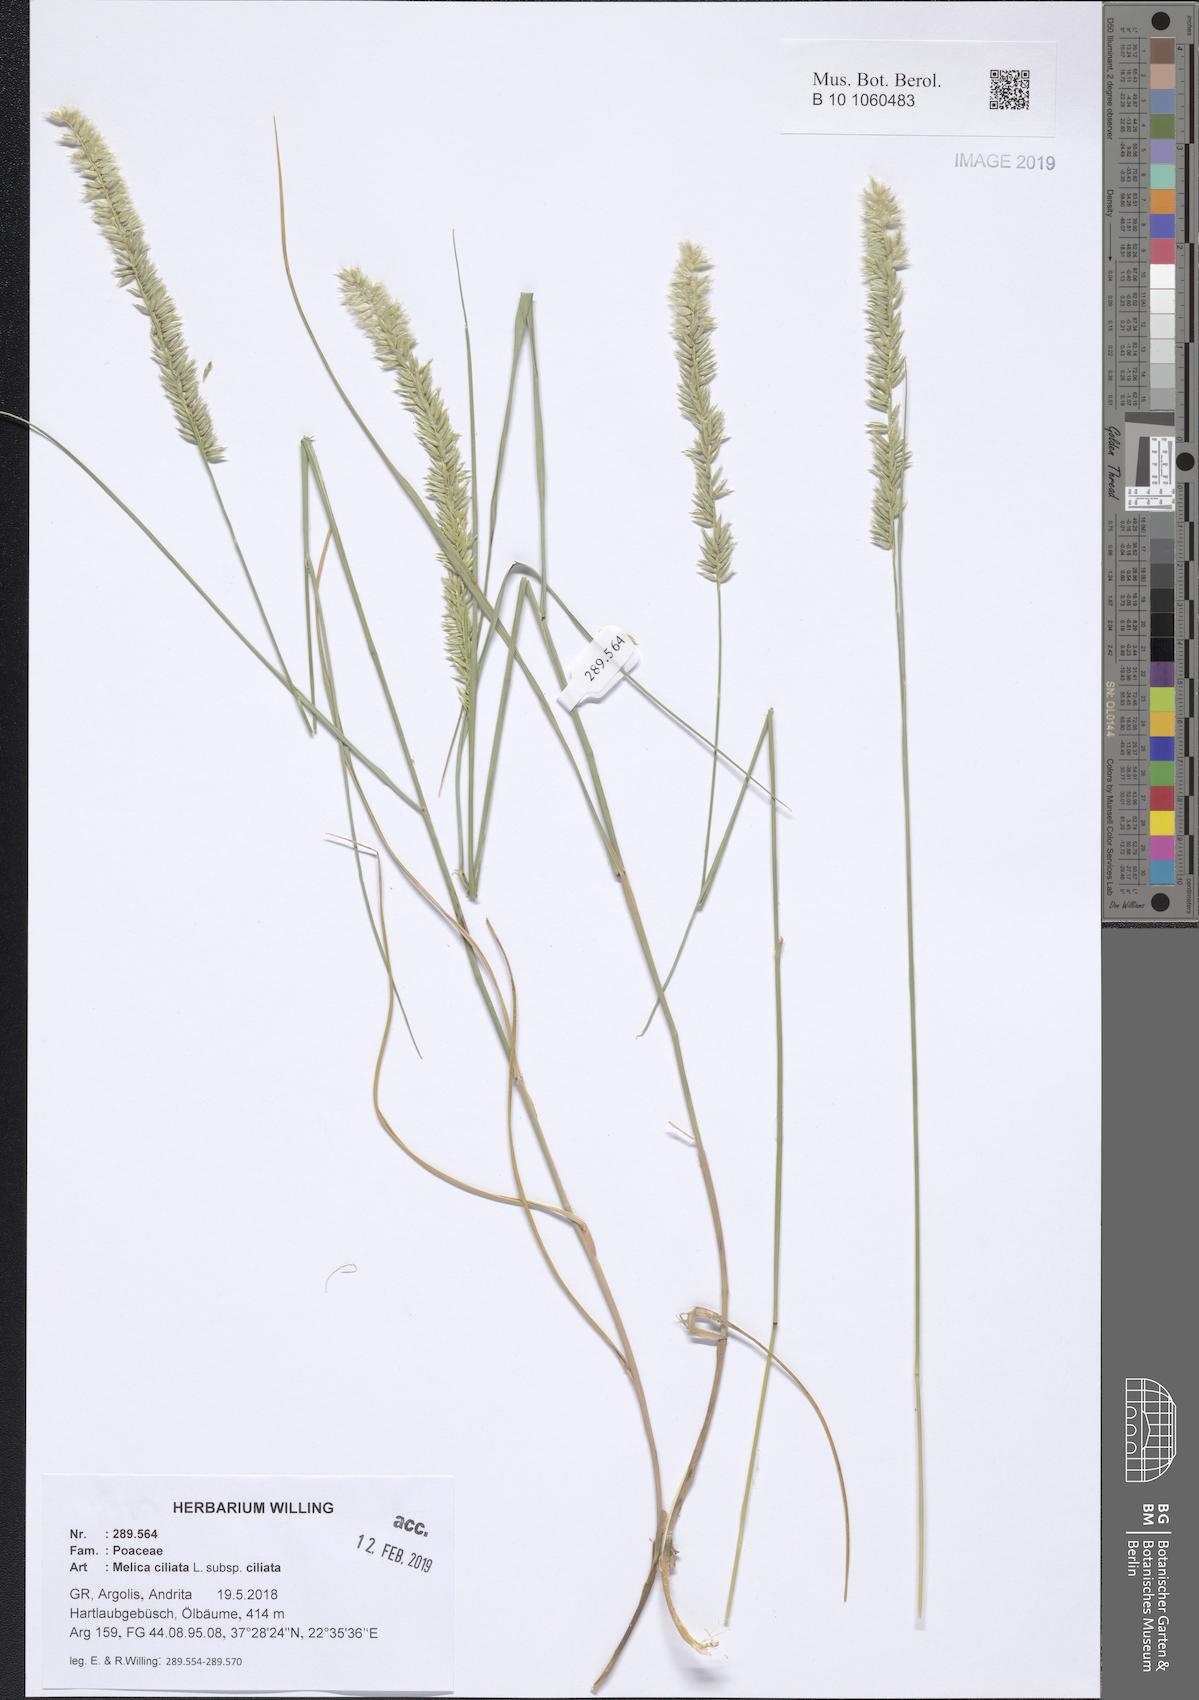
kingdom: Plantae
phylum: Tracheophyta
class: Liliopsida
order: Poales
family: Poaceae
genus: Melica
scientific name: Melica ciliata
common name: Hairy melicgrass
